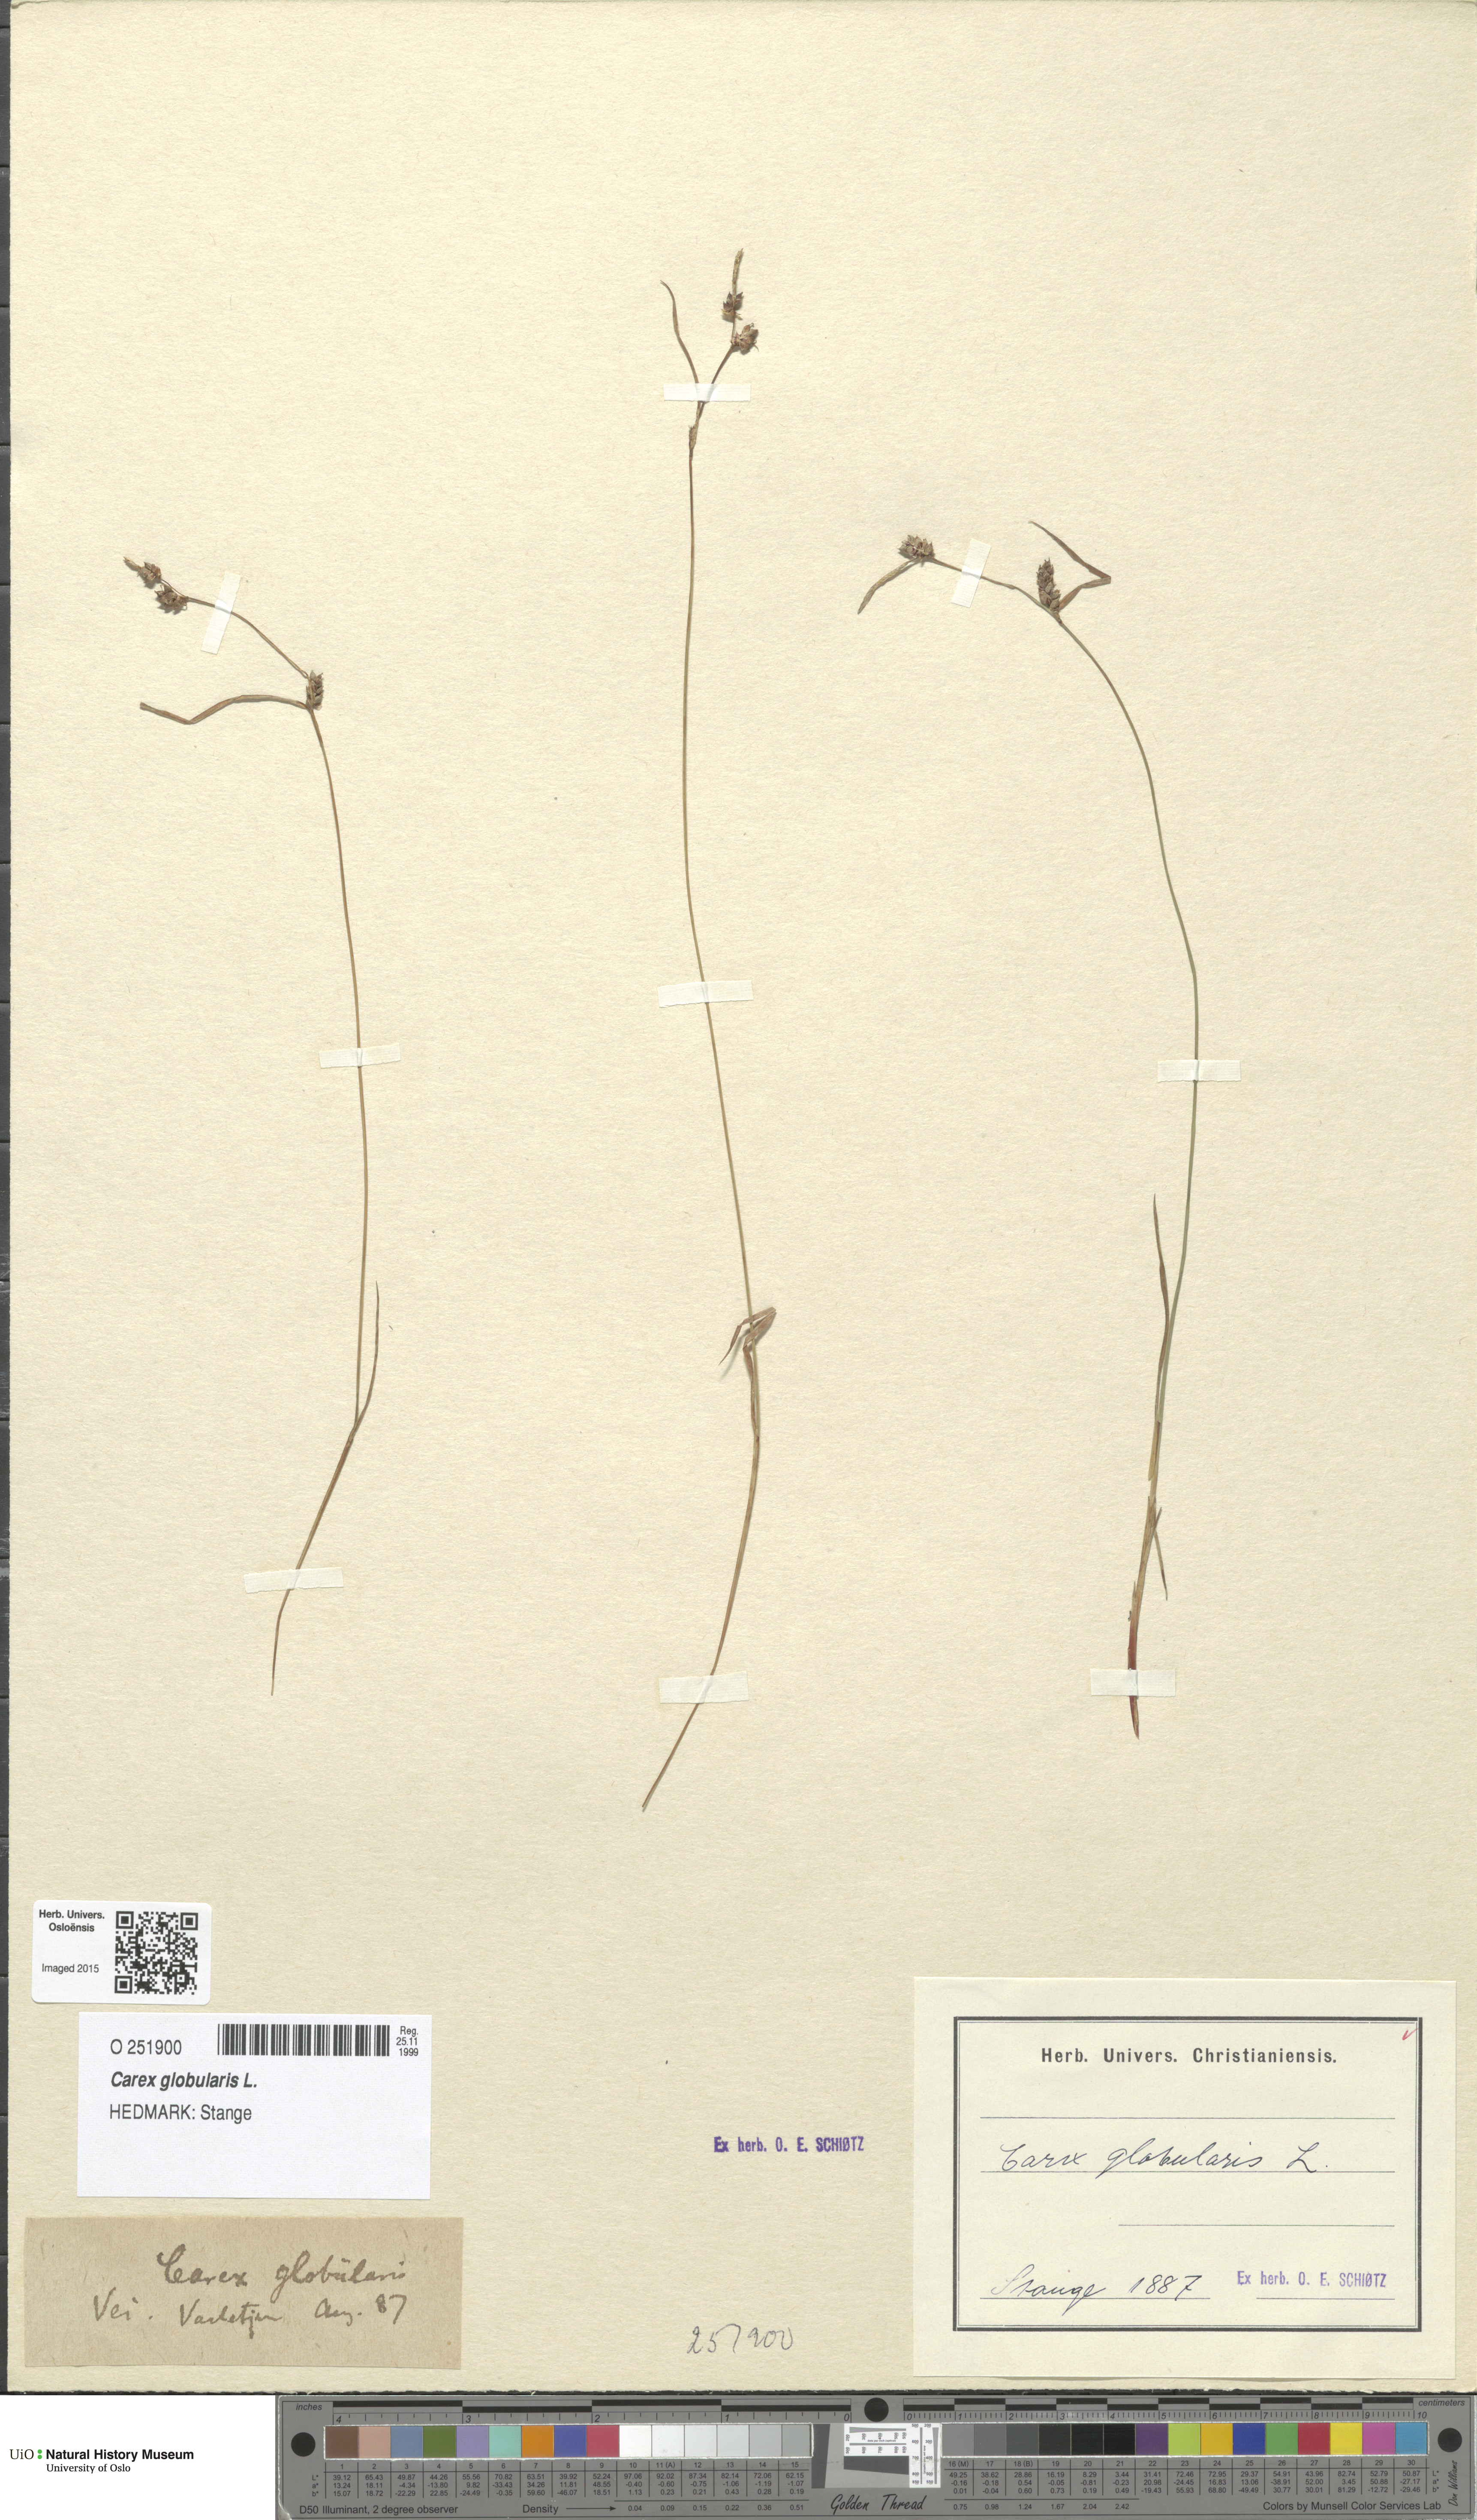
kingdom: Plantae
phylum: Tracheophyta
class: Liliopsida
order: Poales
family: Cyperaceae
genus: Carex
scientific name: Carex globularis
